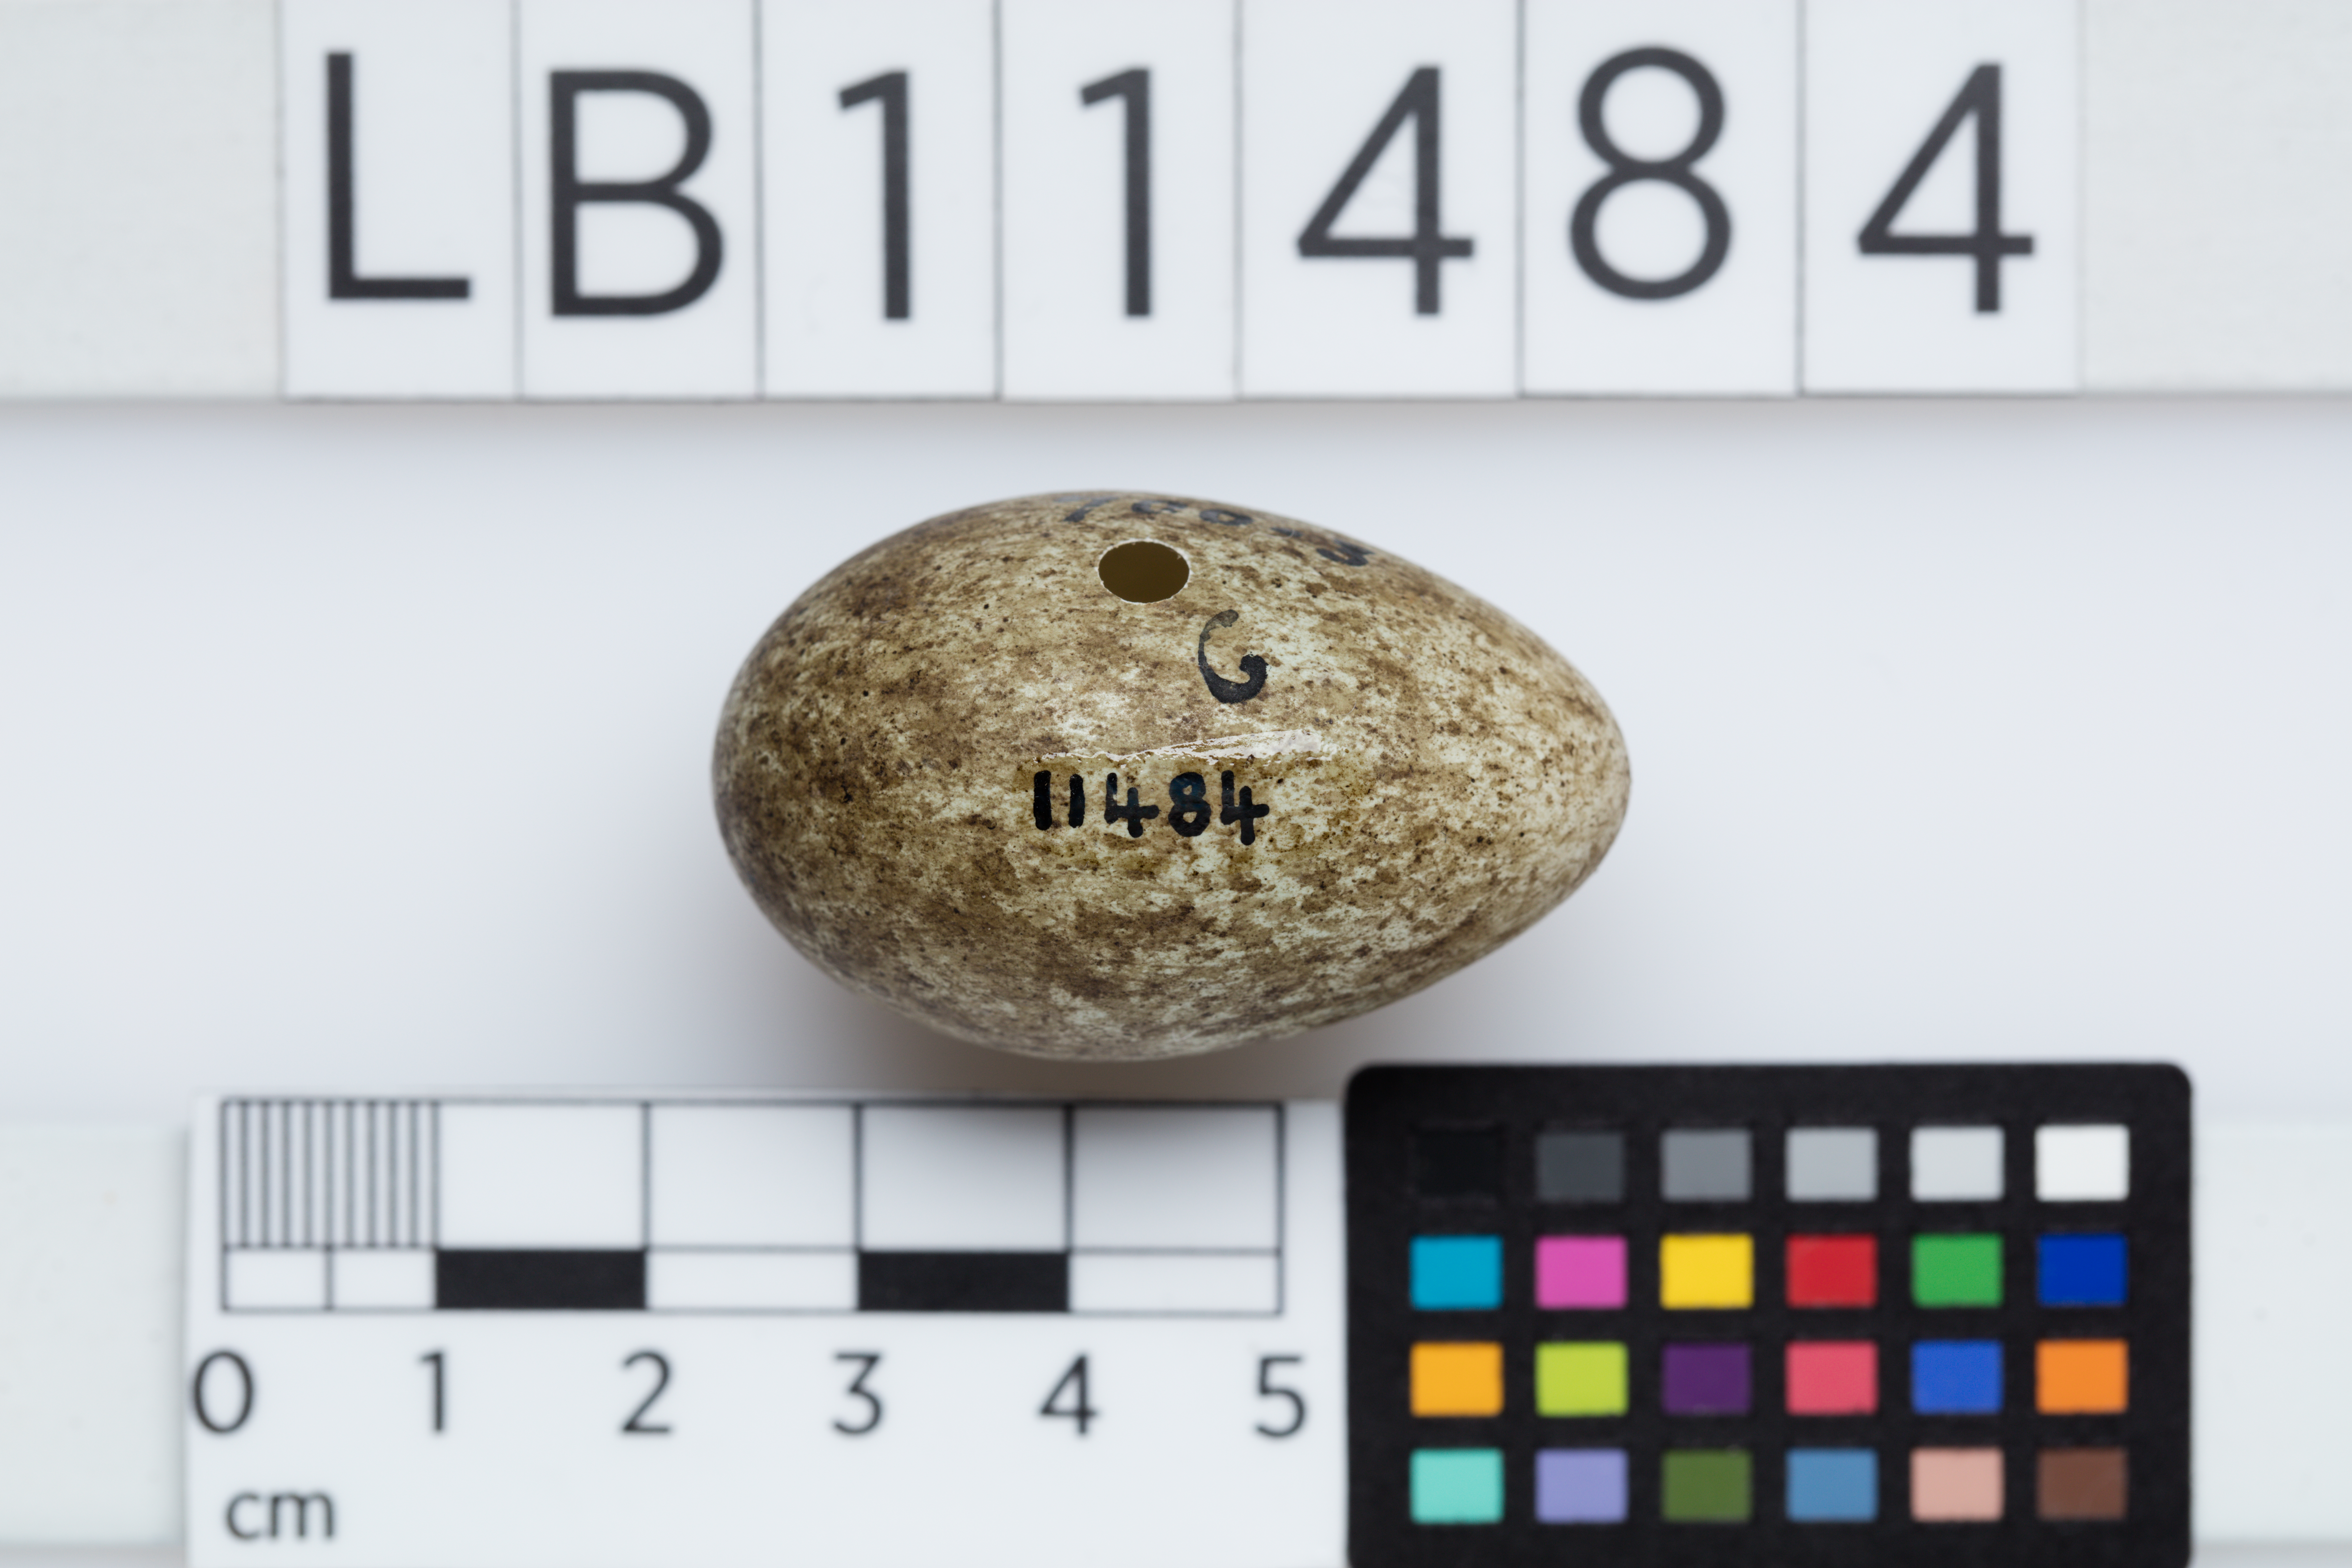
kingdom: Animalia
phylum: Chordata
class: Aves
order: Passeriformes
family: Corvidae
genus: Corvus
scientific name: Corvus frugilegus
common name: Rook
